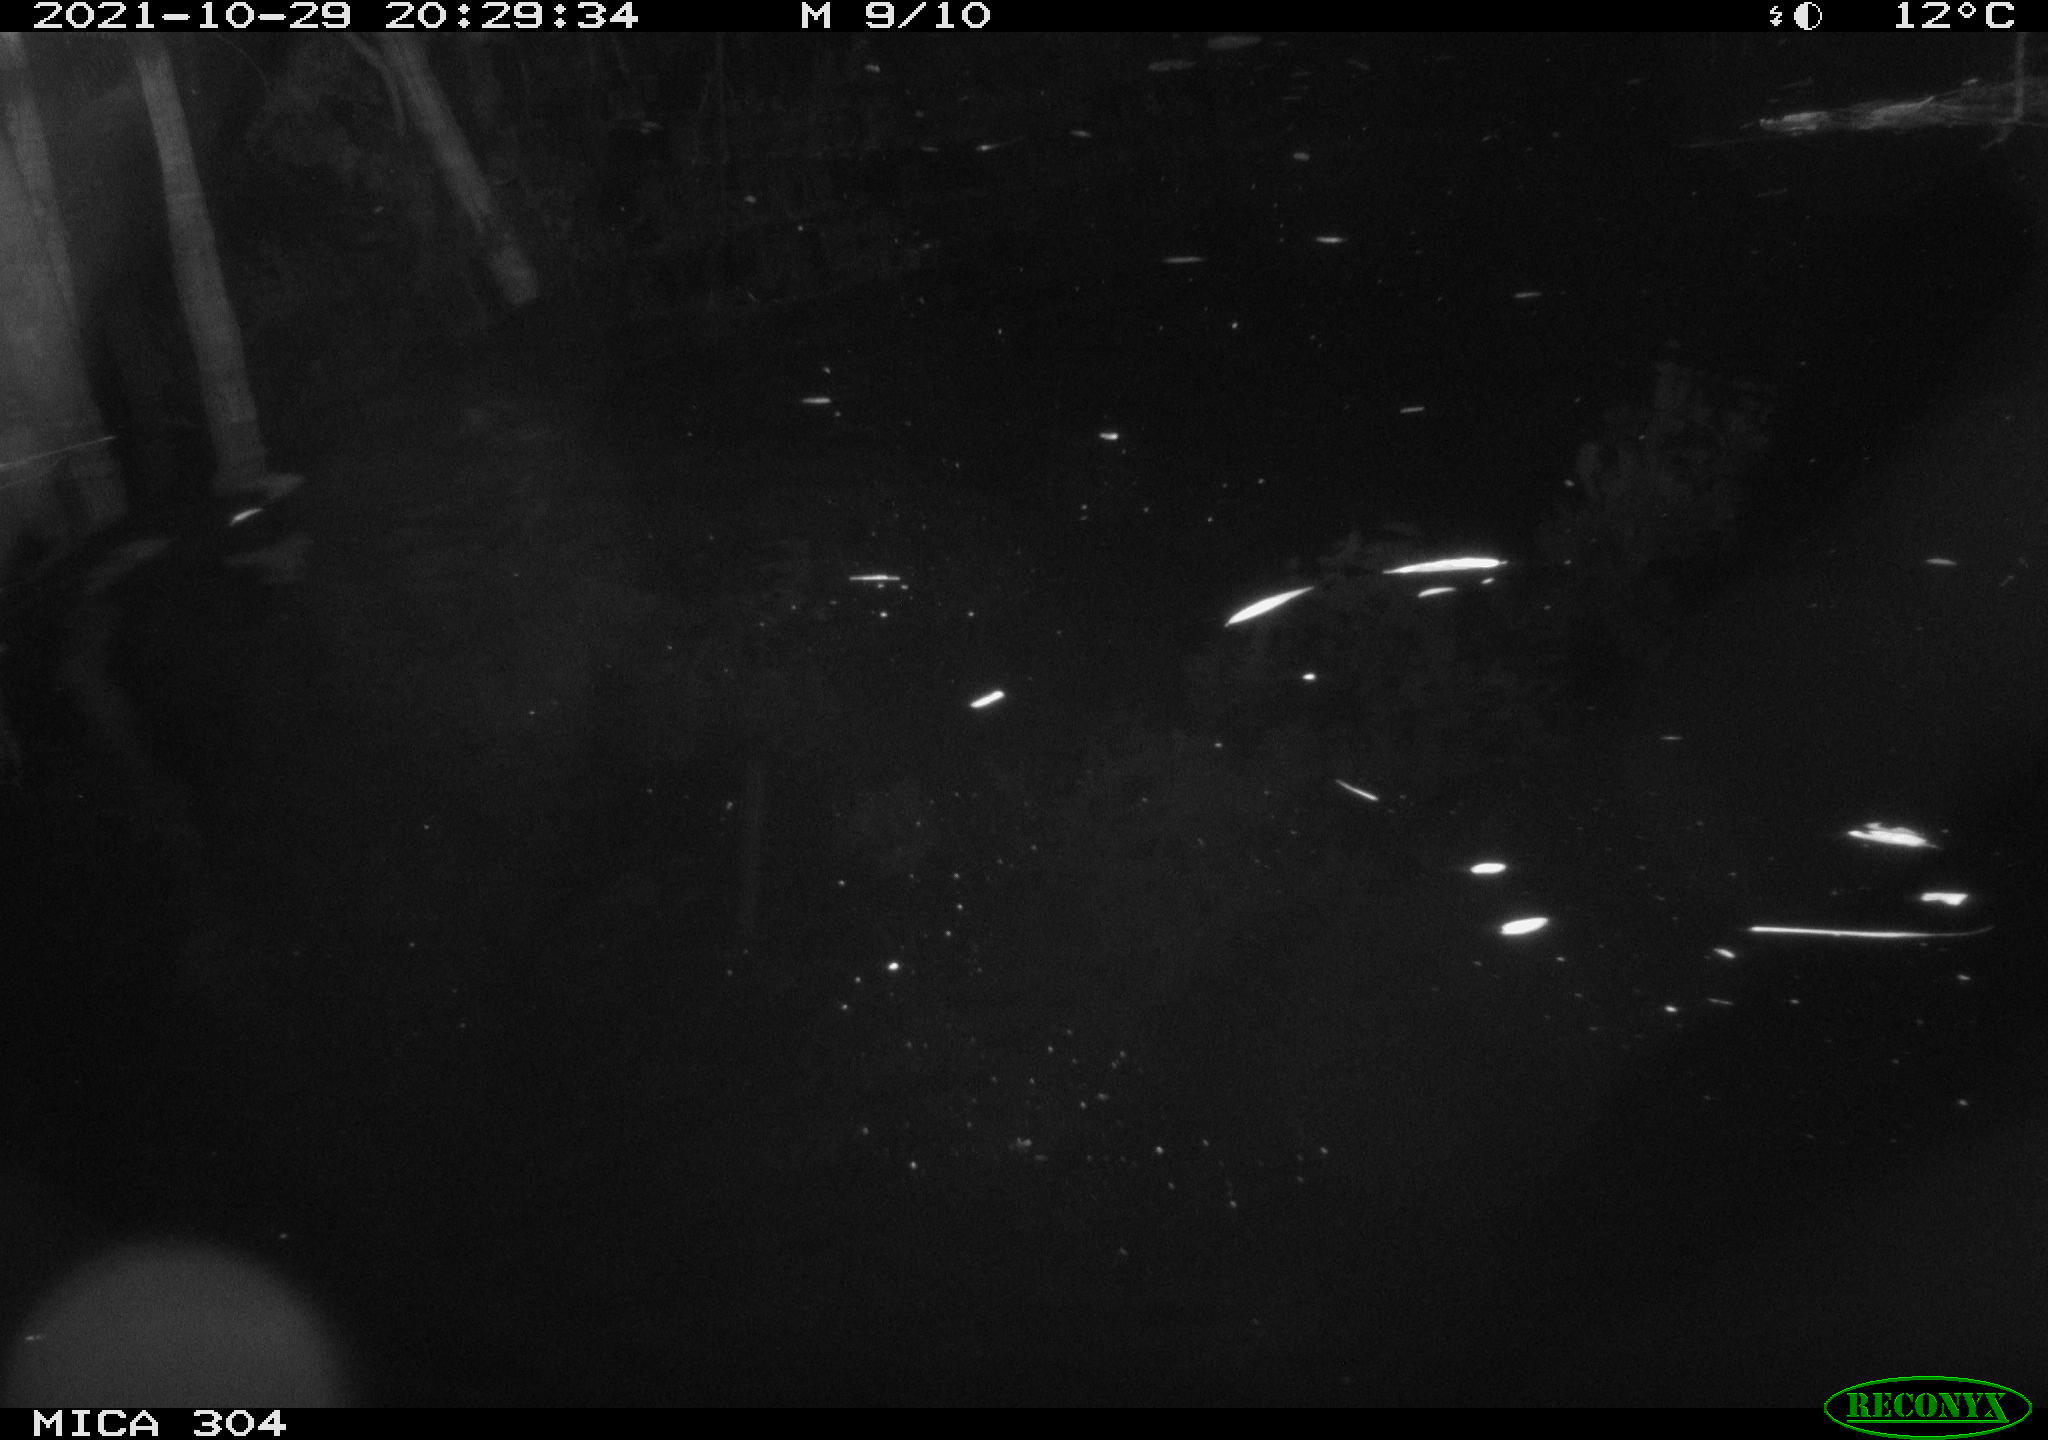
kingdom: Animalia
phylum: Chordata
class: Mammalia
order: Rodentia
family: Muridae
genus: Rattus
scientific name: Rattus norvegicus
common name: Brown rat
